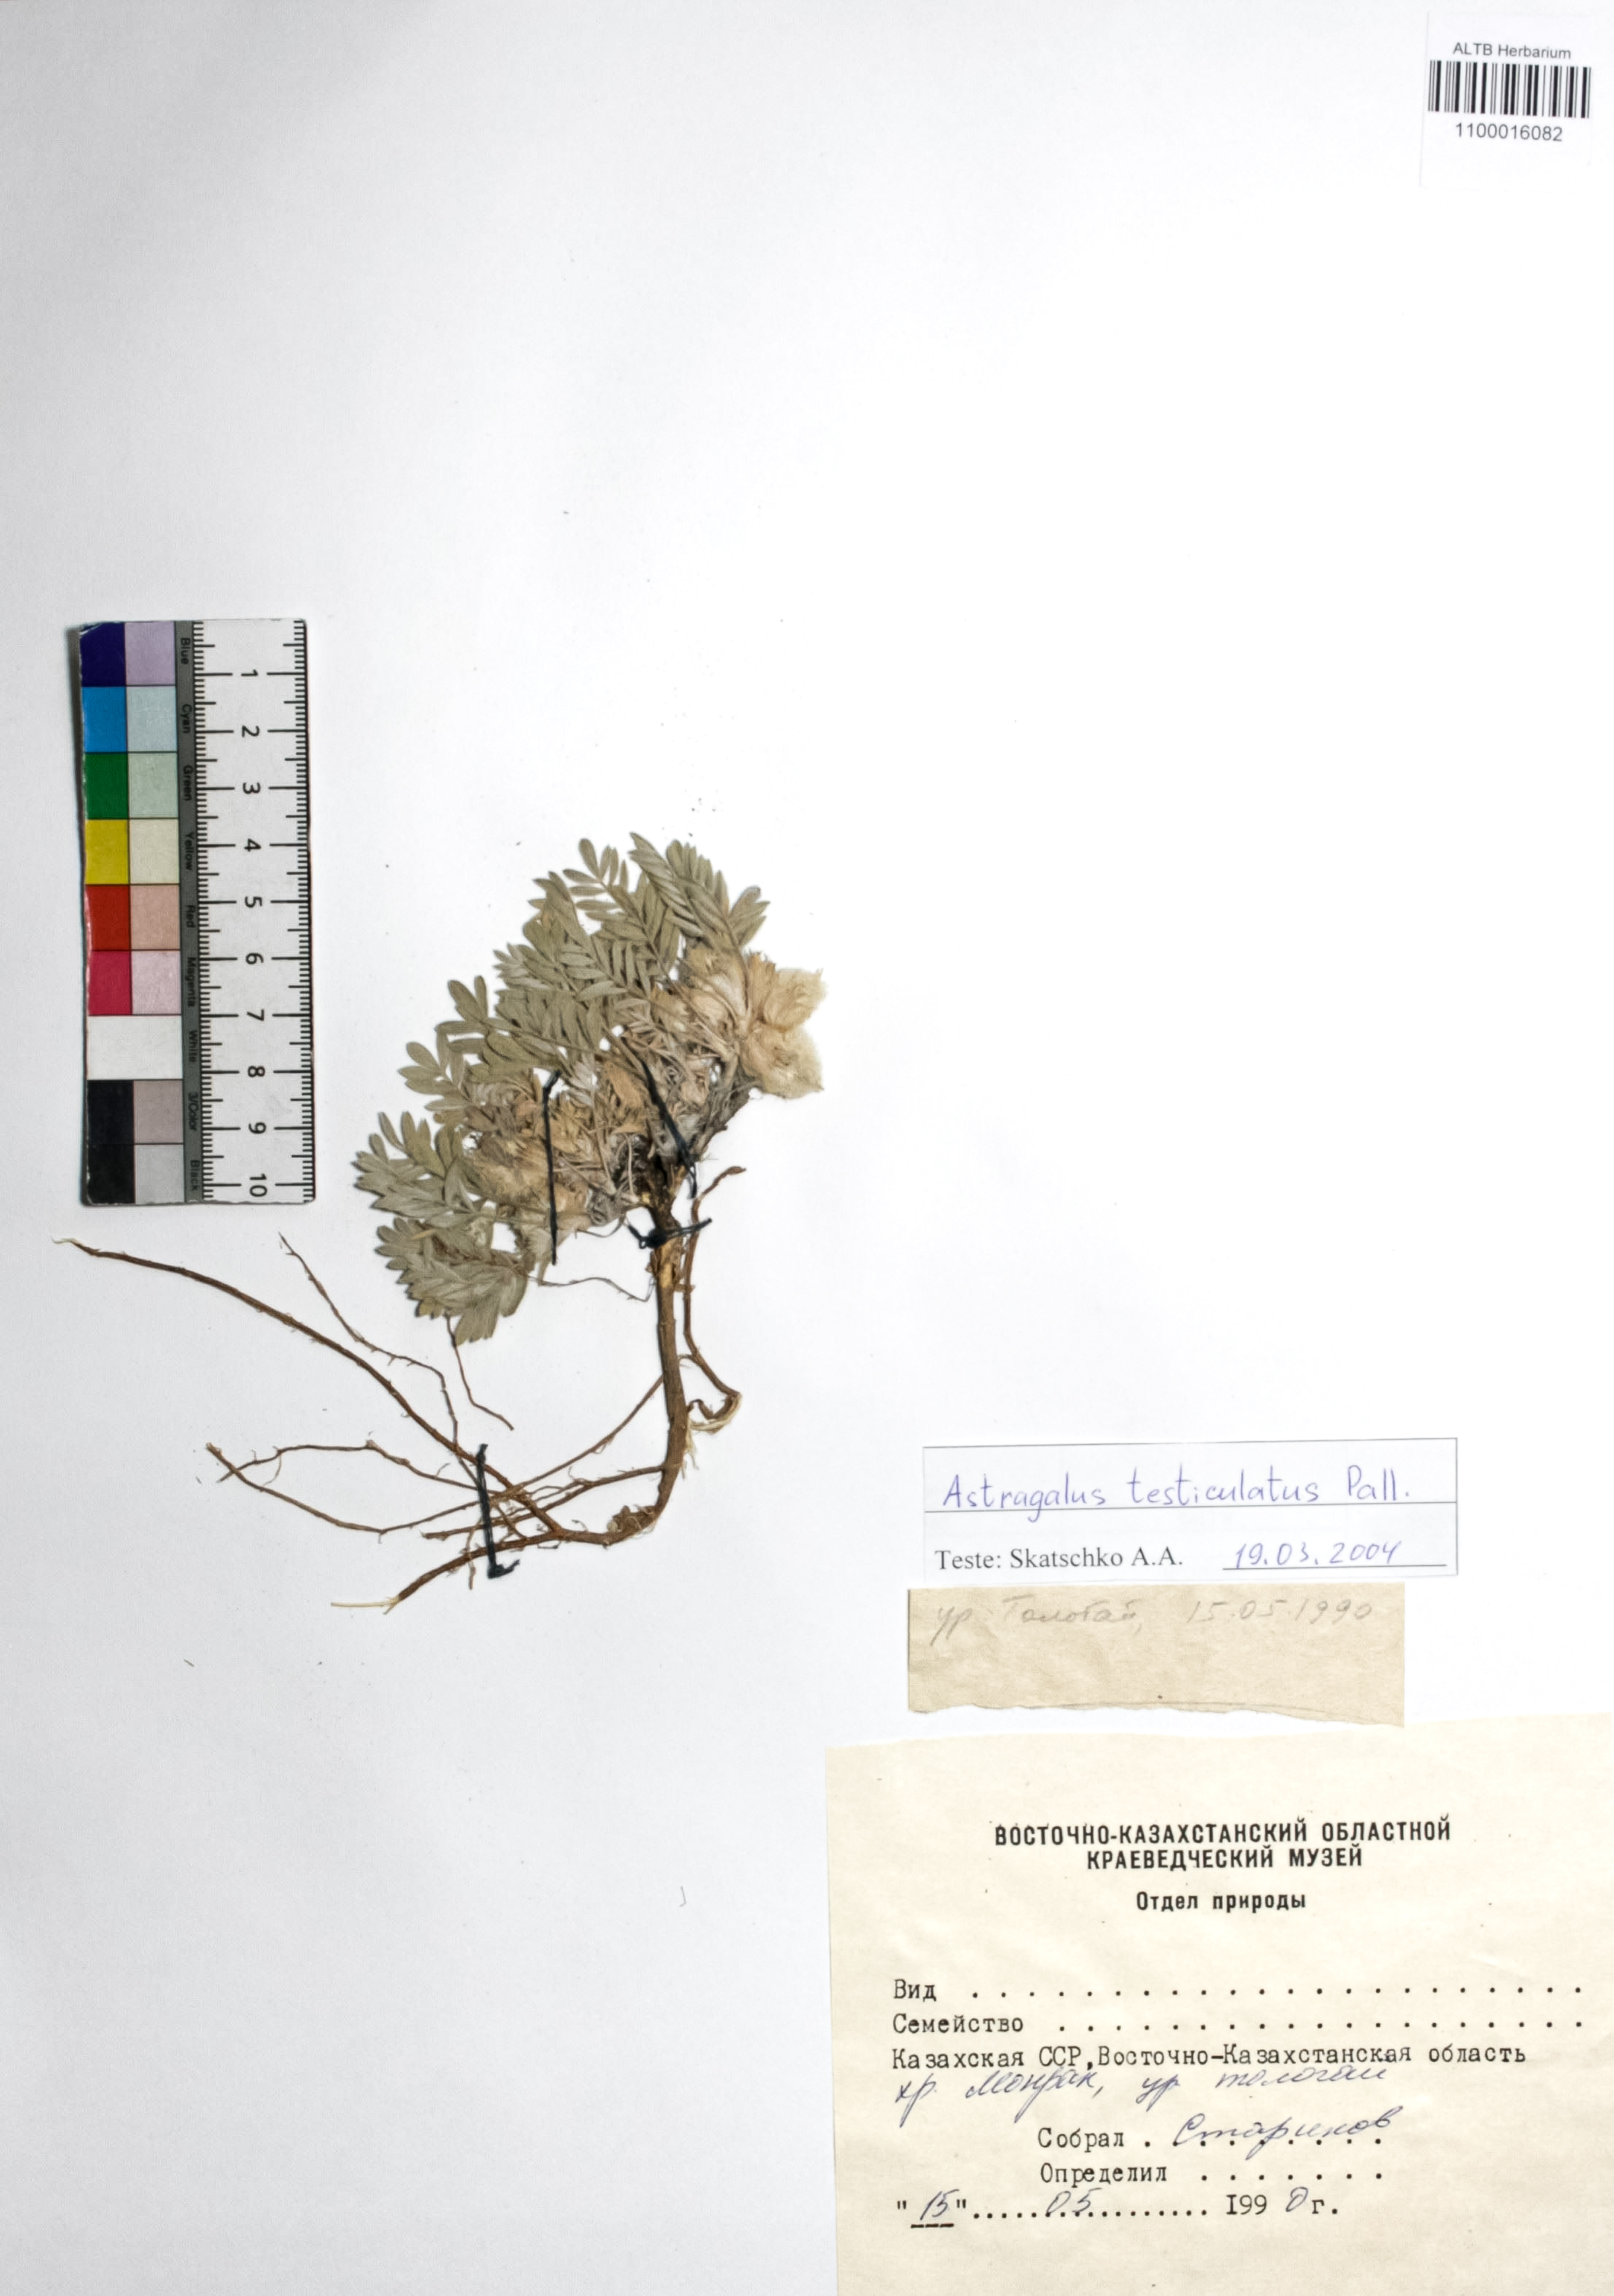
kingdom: Plantae
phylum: Tracheophyta
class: Magnoliopsida
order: Fabales
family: Fabaceae
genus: Astragalus
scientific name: Astragalus testiculatus
